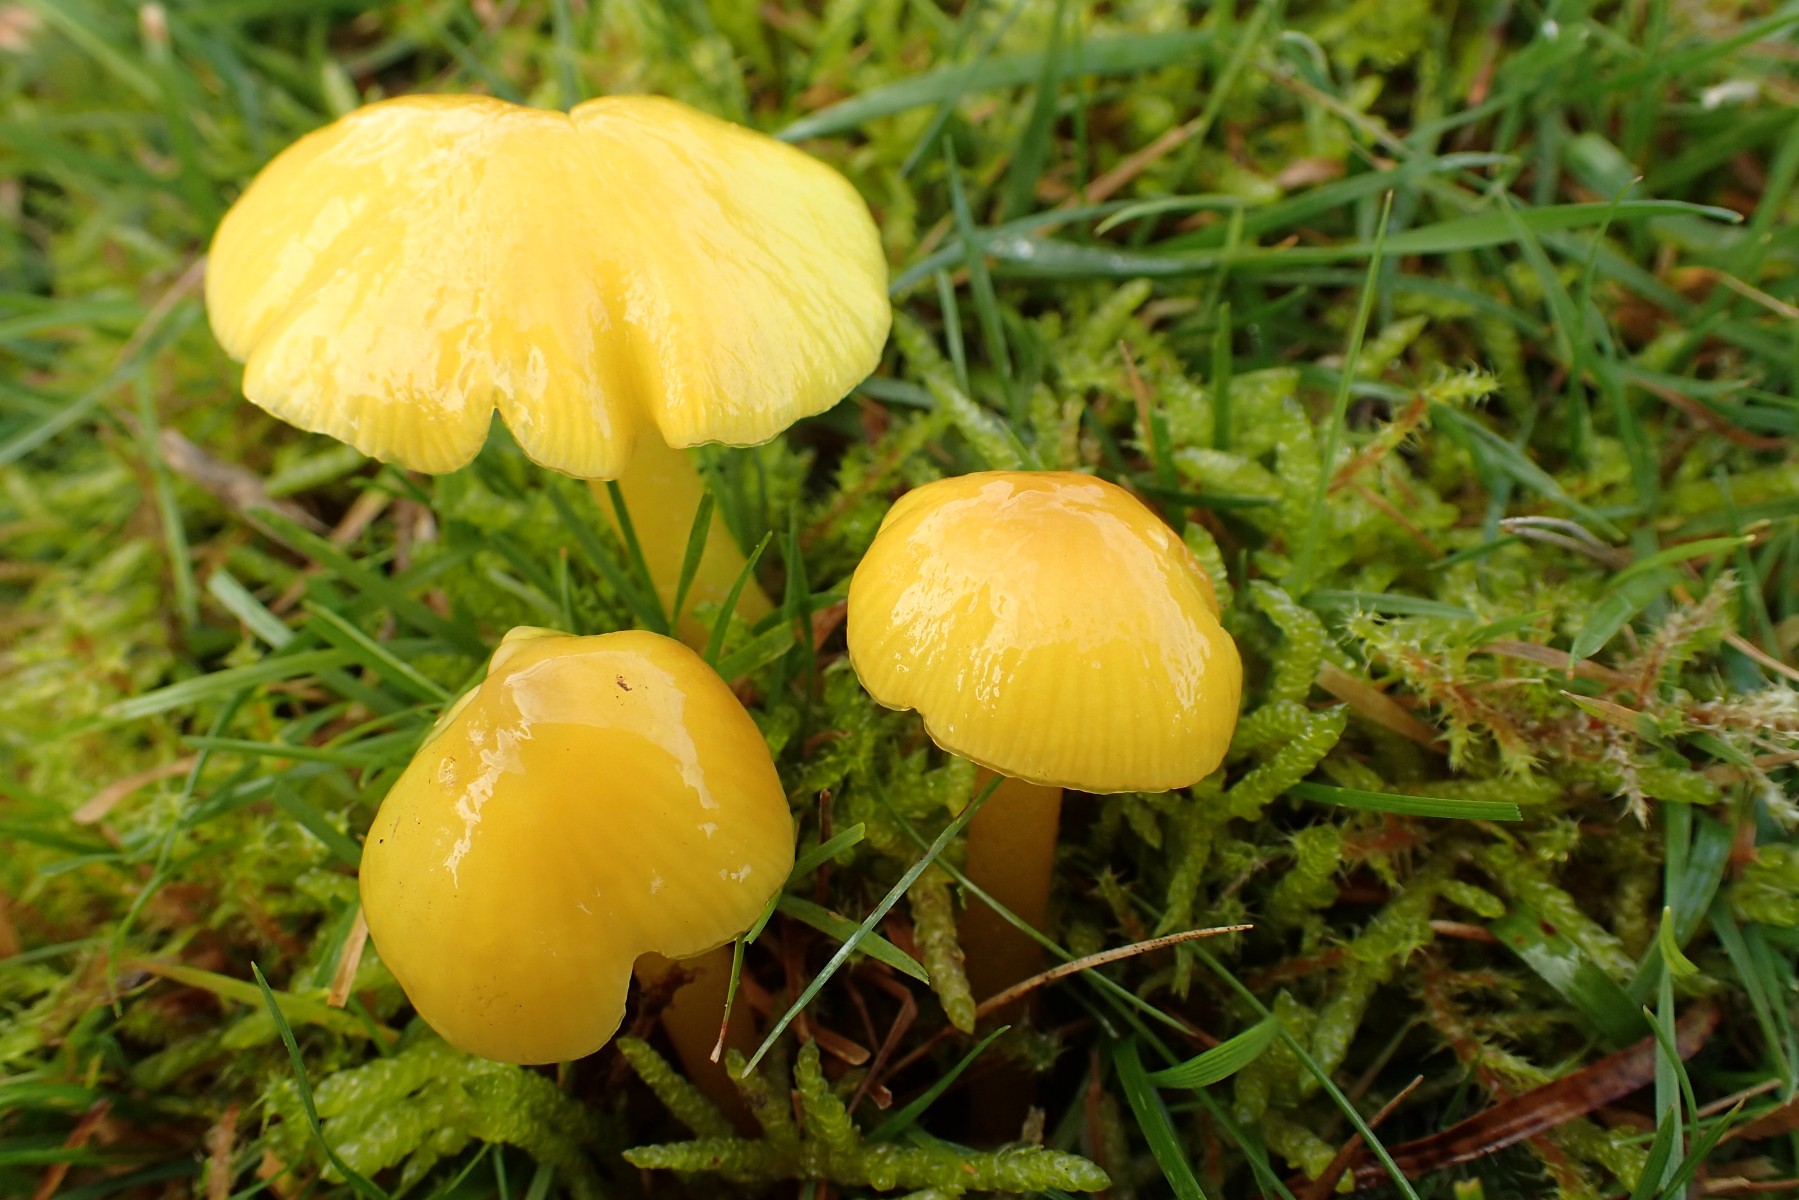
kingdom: Fungi
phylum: Basidiomycota
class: Agaricomycetes
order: Agaricales
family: Hygrophoraceae
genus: Hygrocybe
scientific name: Hygrocybe chlorophana
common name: gul vokshat
